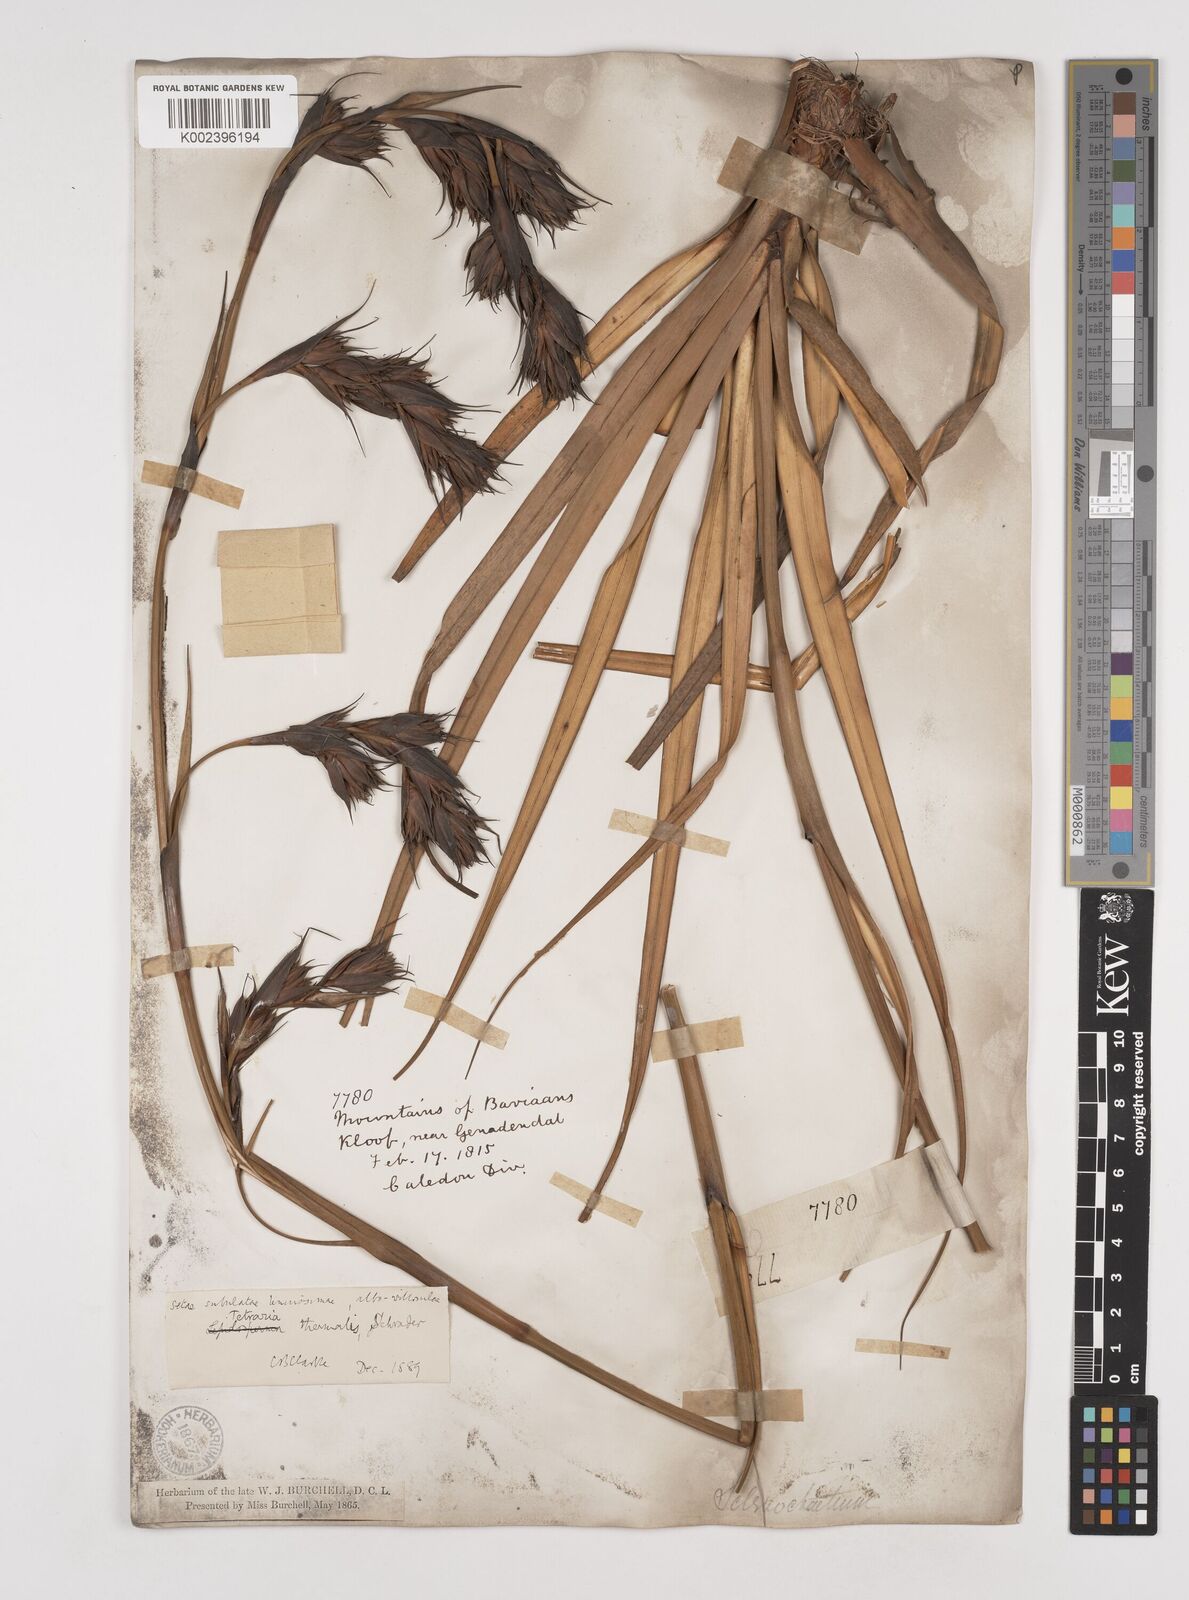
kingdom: Plantae
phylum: Tracheophyta
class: Liliopsida
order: Poales
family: Cyperaceae
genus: Tetraria
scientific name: Tetraria thermalis
